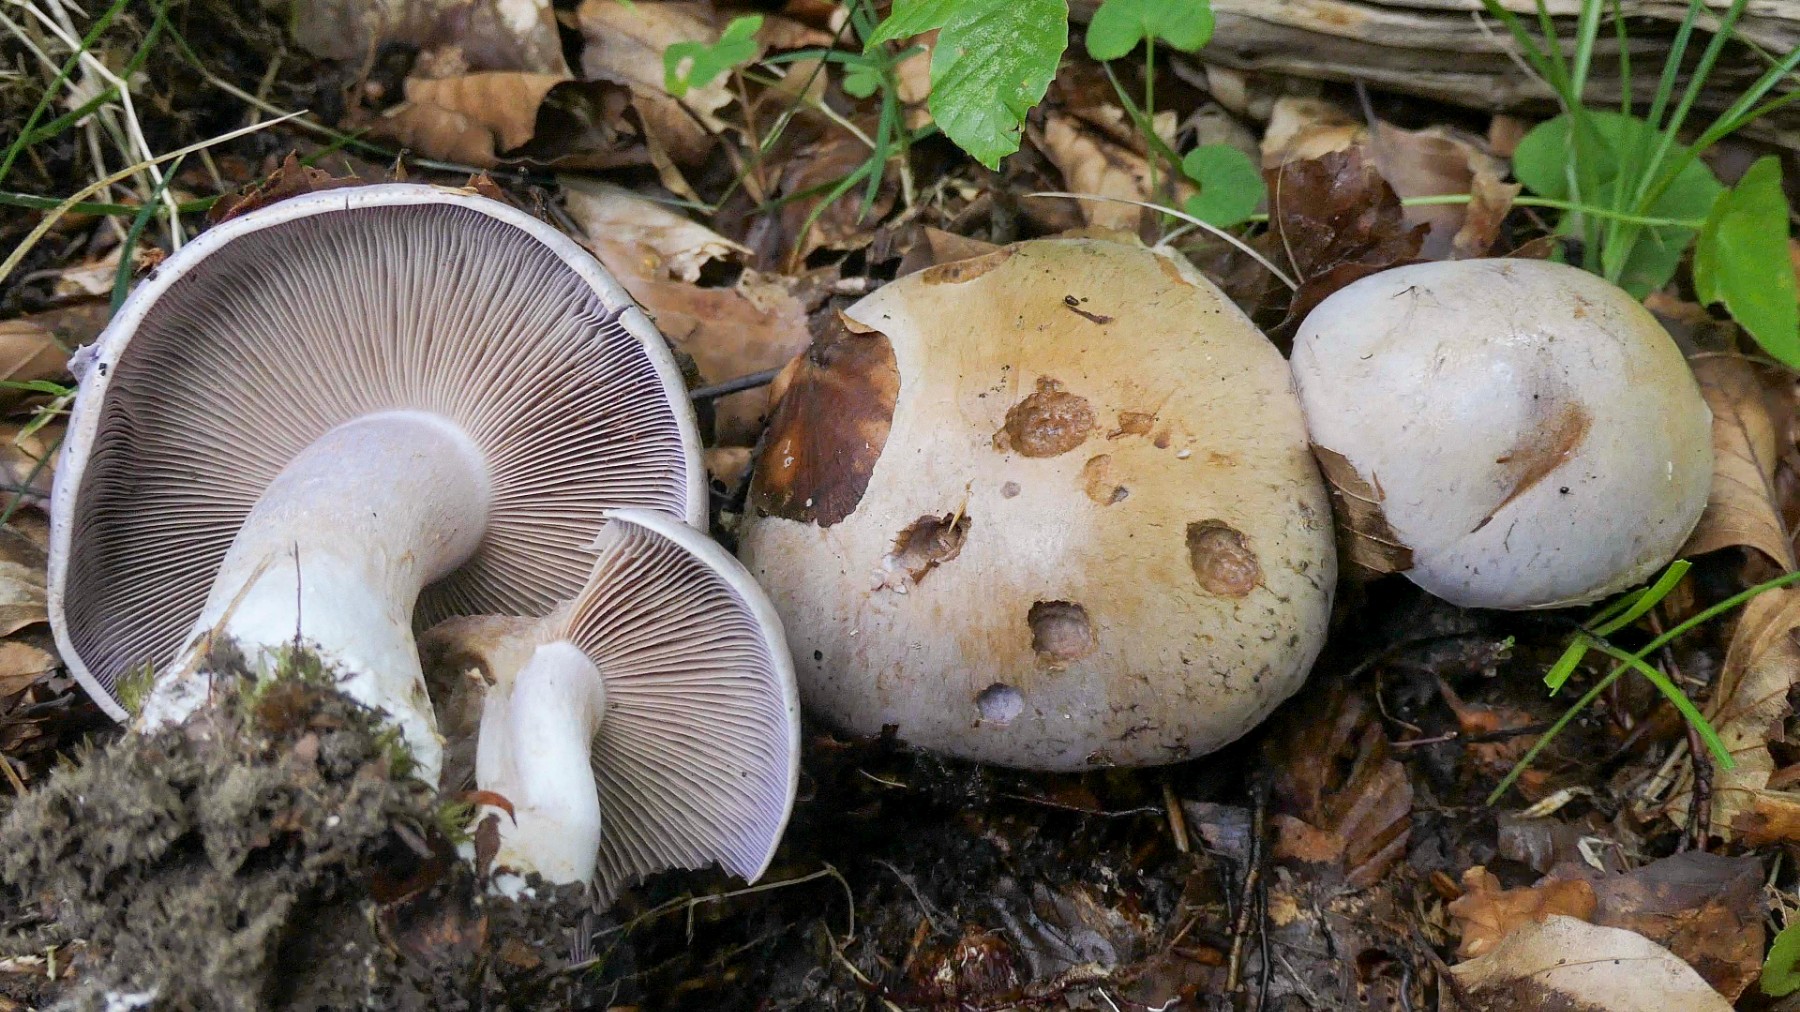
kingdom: Fungi
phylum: Basidiomycota
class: Agaricomycetes
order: Agaricales
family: Cortinariaceae
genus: Cortinarius
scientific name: Cortinarius largus
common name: violetrandet slørhat
